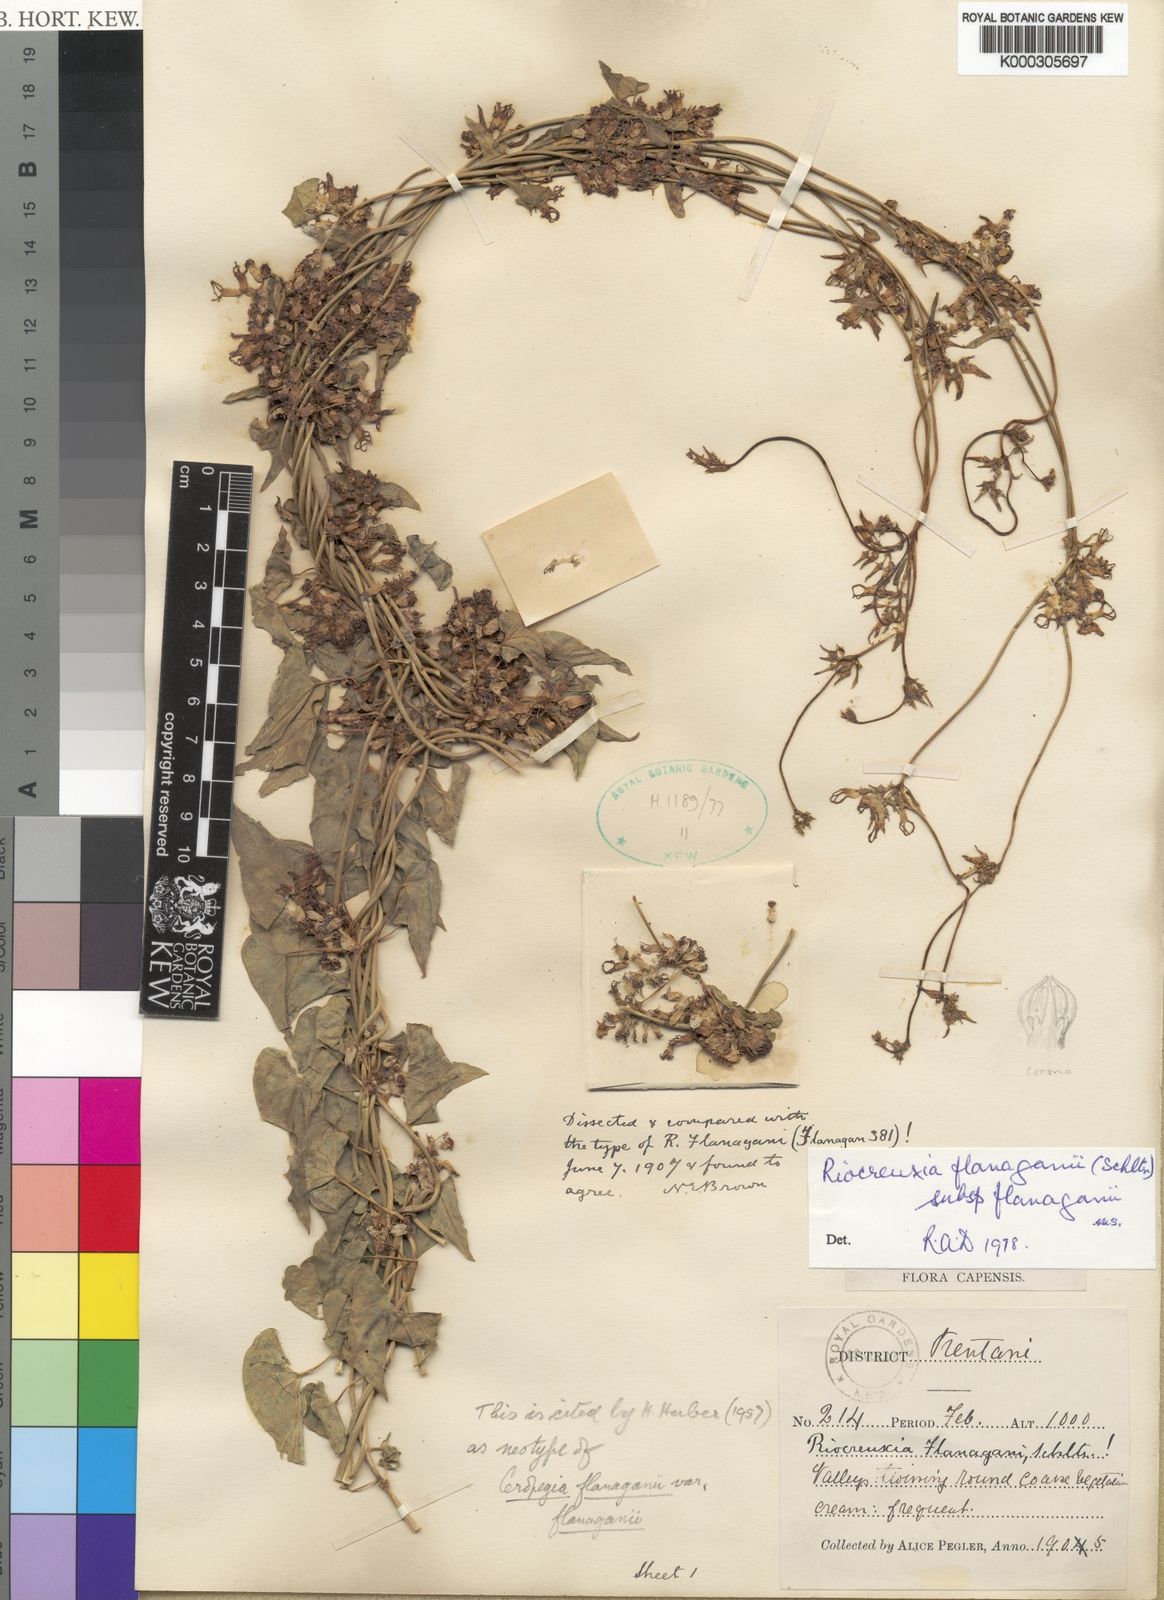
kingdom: Plantae
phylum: Tracheophyta
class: Magnoliopsida
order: Gentianales
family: Apocynaceae
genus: Riocreuxia
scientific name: Riocreuxia flanaganii
